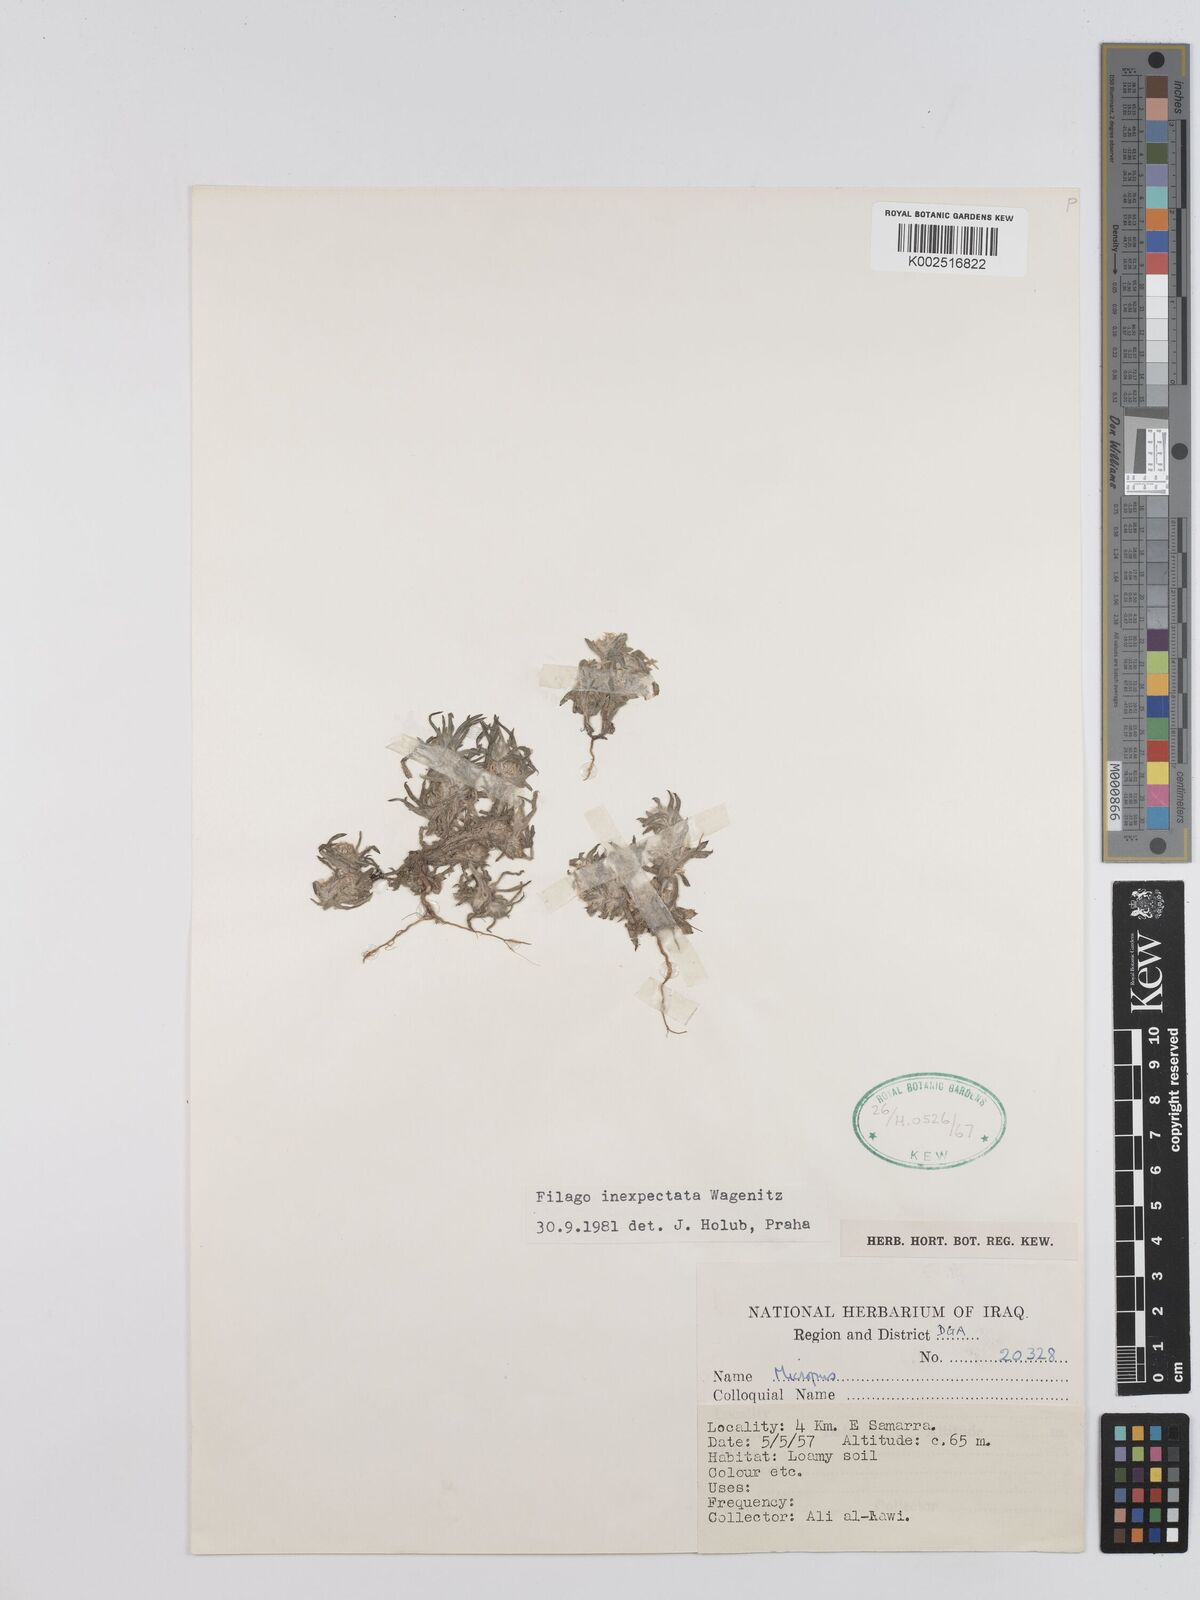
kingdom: Plantae
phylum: Tracheophyta
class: Magnoliopsida
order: Asterales
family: Asteraceae
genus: Filago
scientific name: Filago inexpectata
